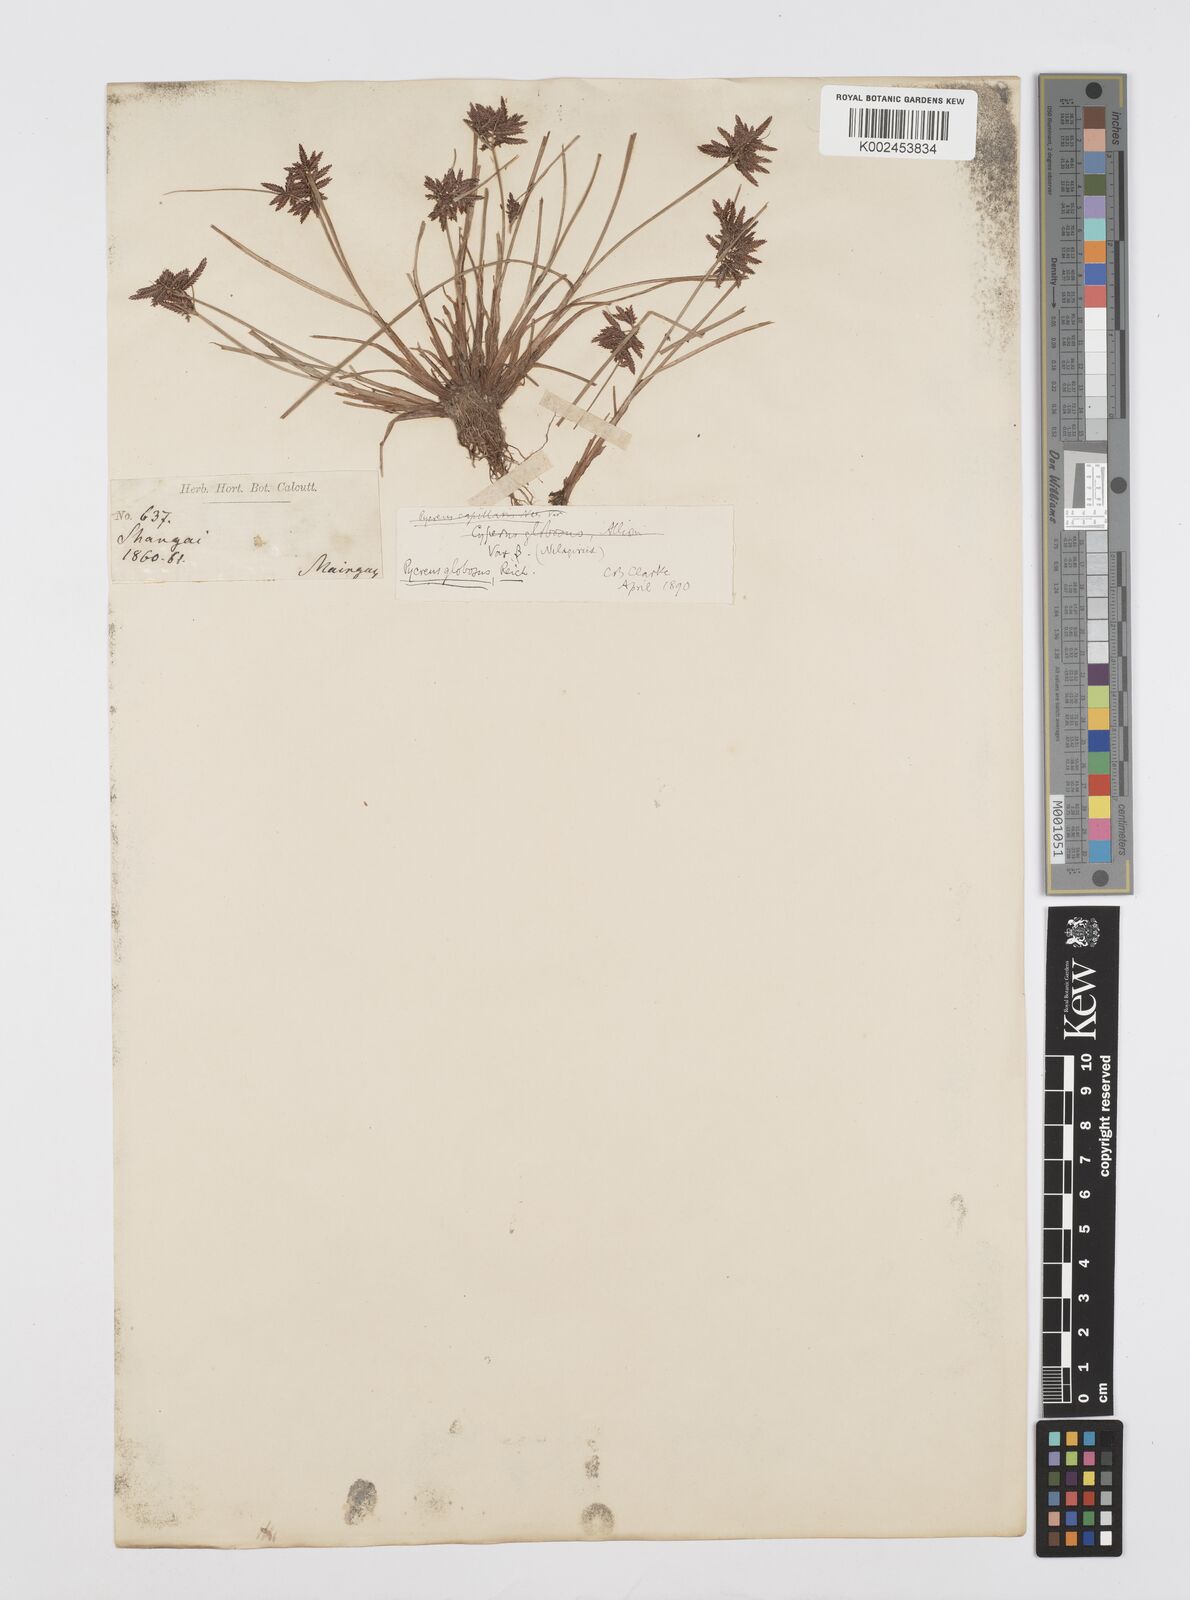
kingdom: Plantae
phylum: Tracheophyta
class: Liliopsida
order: Poales
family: Cyperaceae
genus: Cyperus
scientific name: Cyperus flavidus
